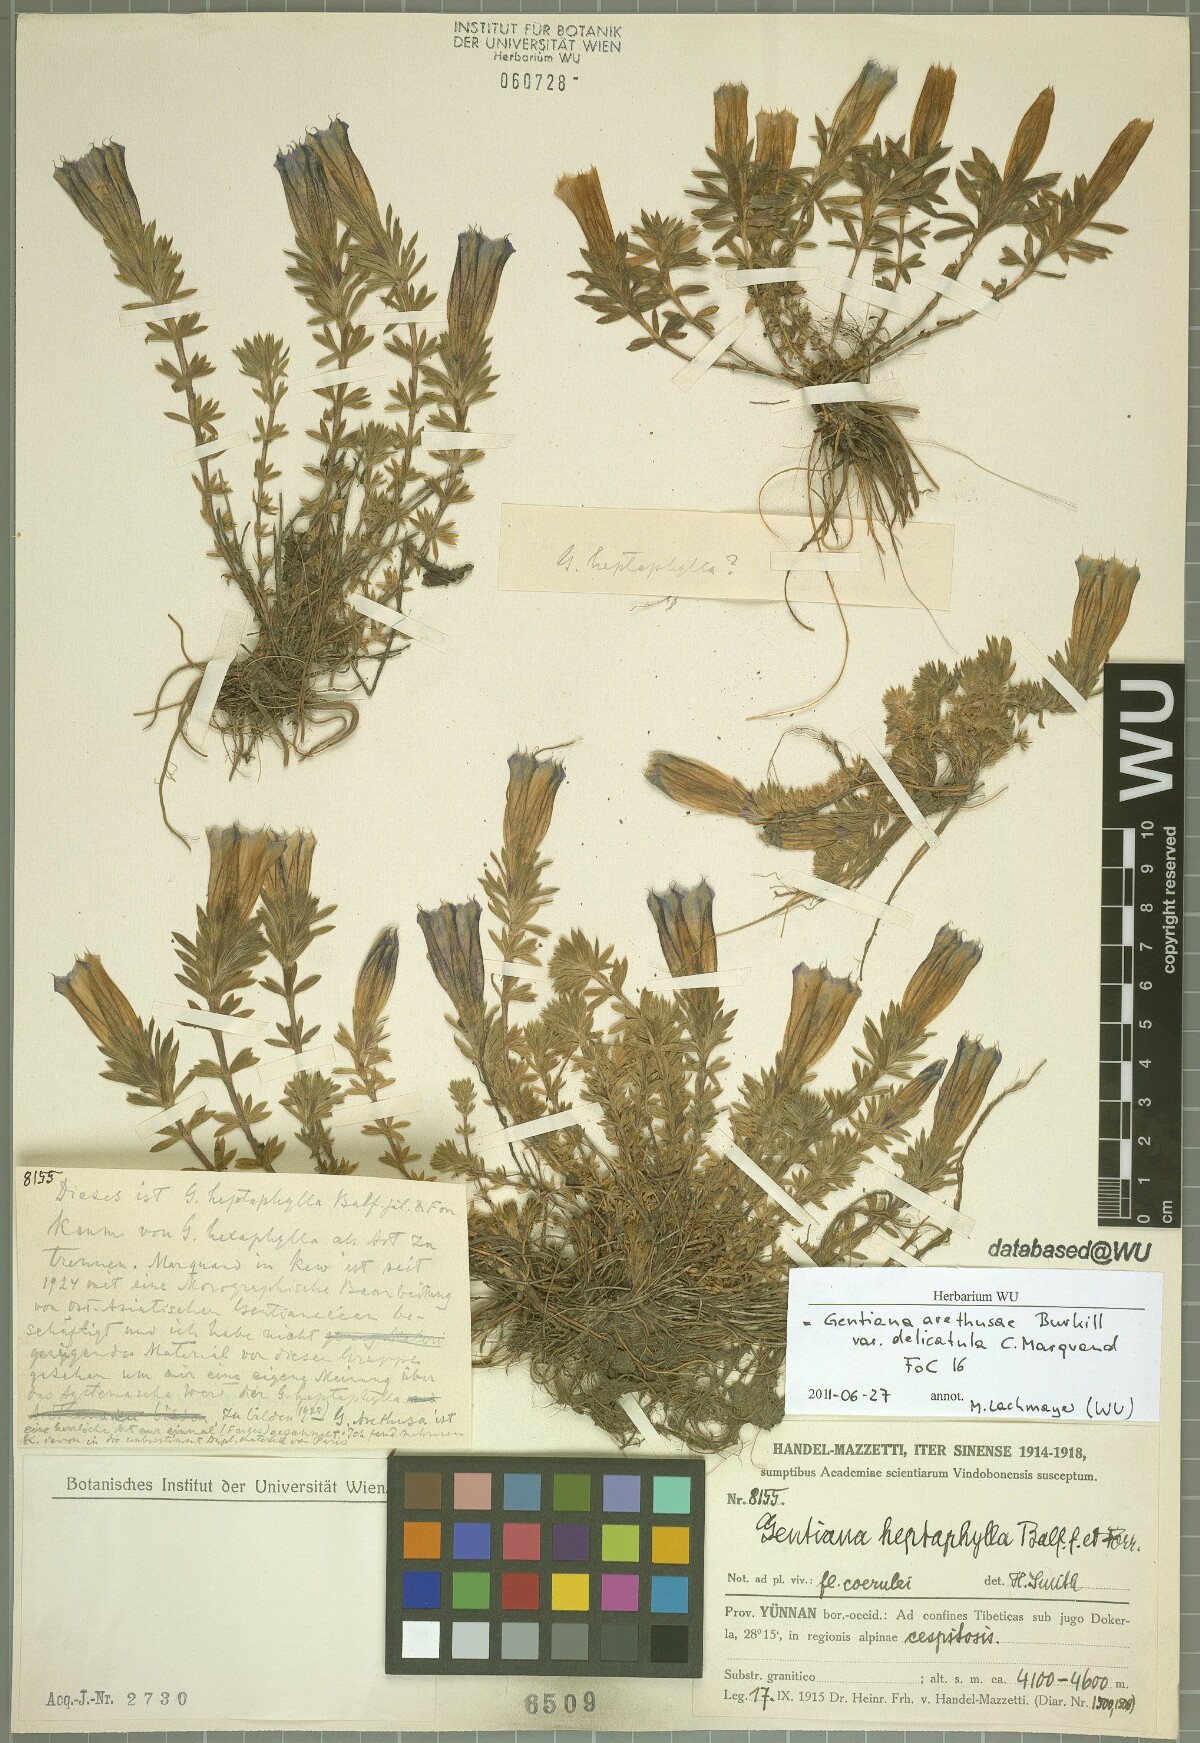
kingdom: Plantae
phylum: Tracheophyta
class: Magnoliopsida
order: Gentianales
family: Gentianaceae
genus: Gentiana
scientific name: Gentiana arethusae
